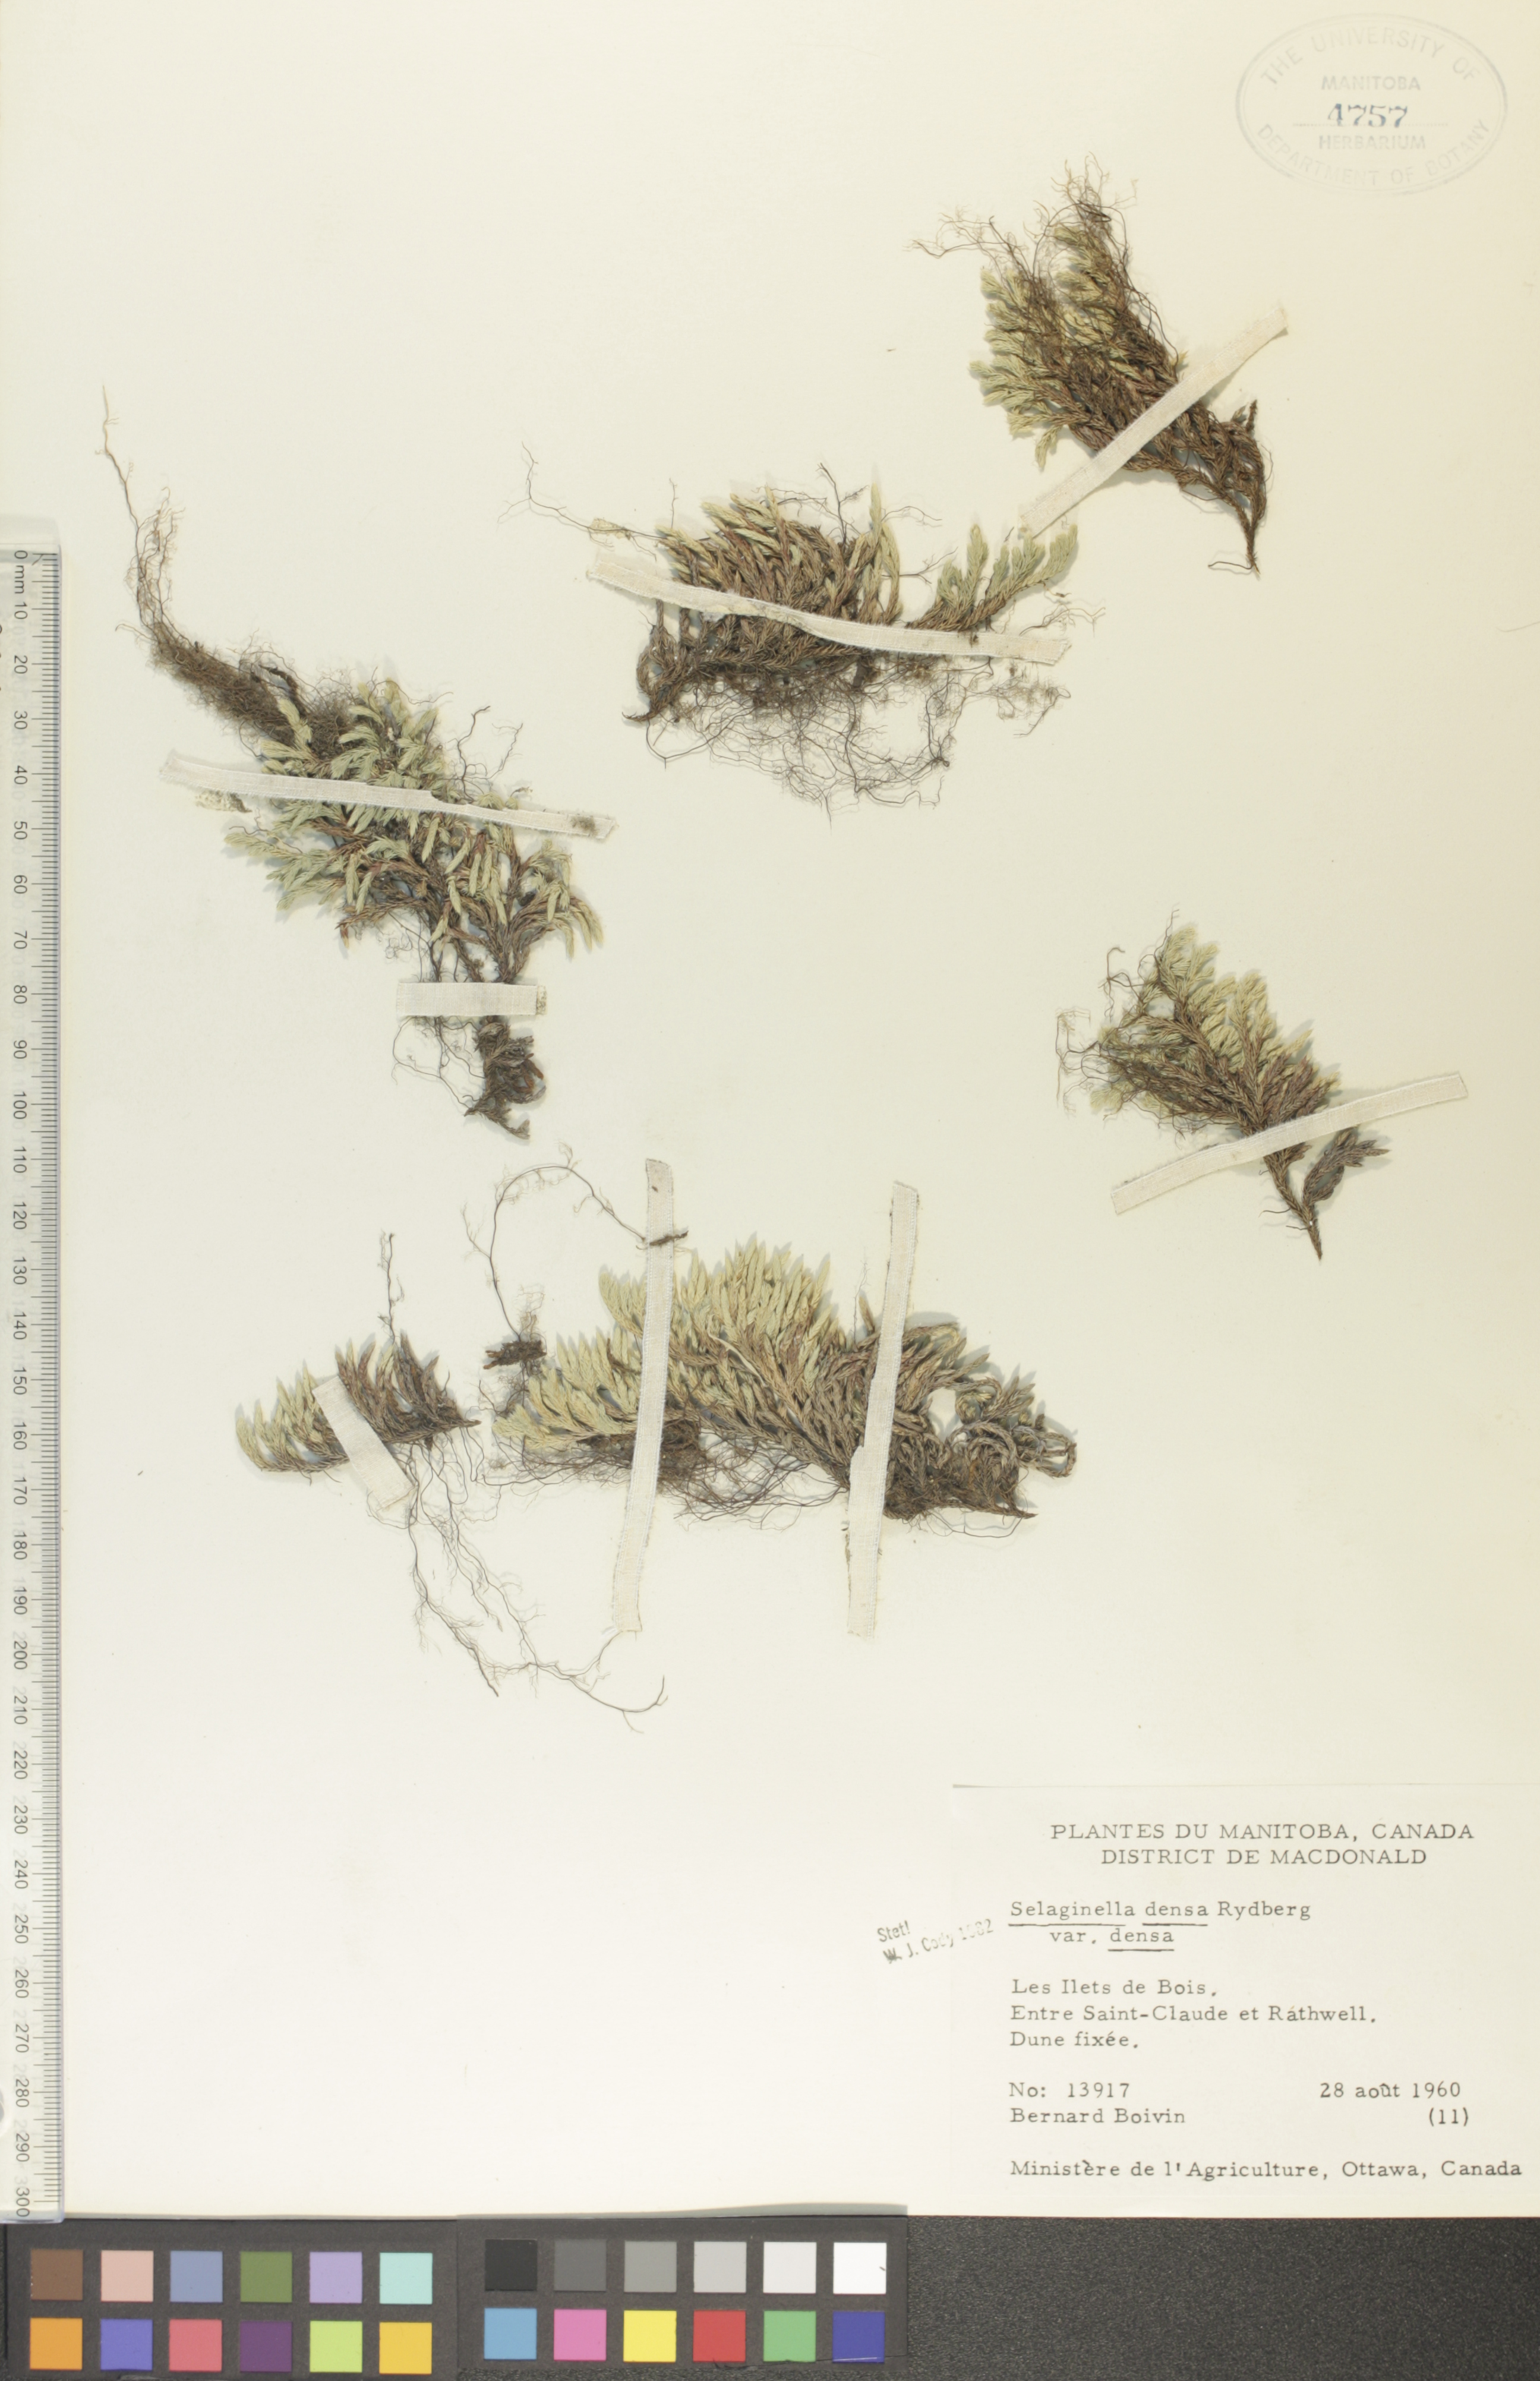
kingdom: Plantae
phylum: Tracheophyta
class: Lycopodiopsida
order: Selaginellales
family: Selaginellaceae
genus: Selaginella
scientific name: Selaginella densa
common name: Mountain spike-moss
